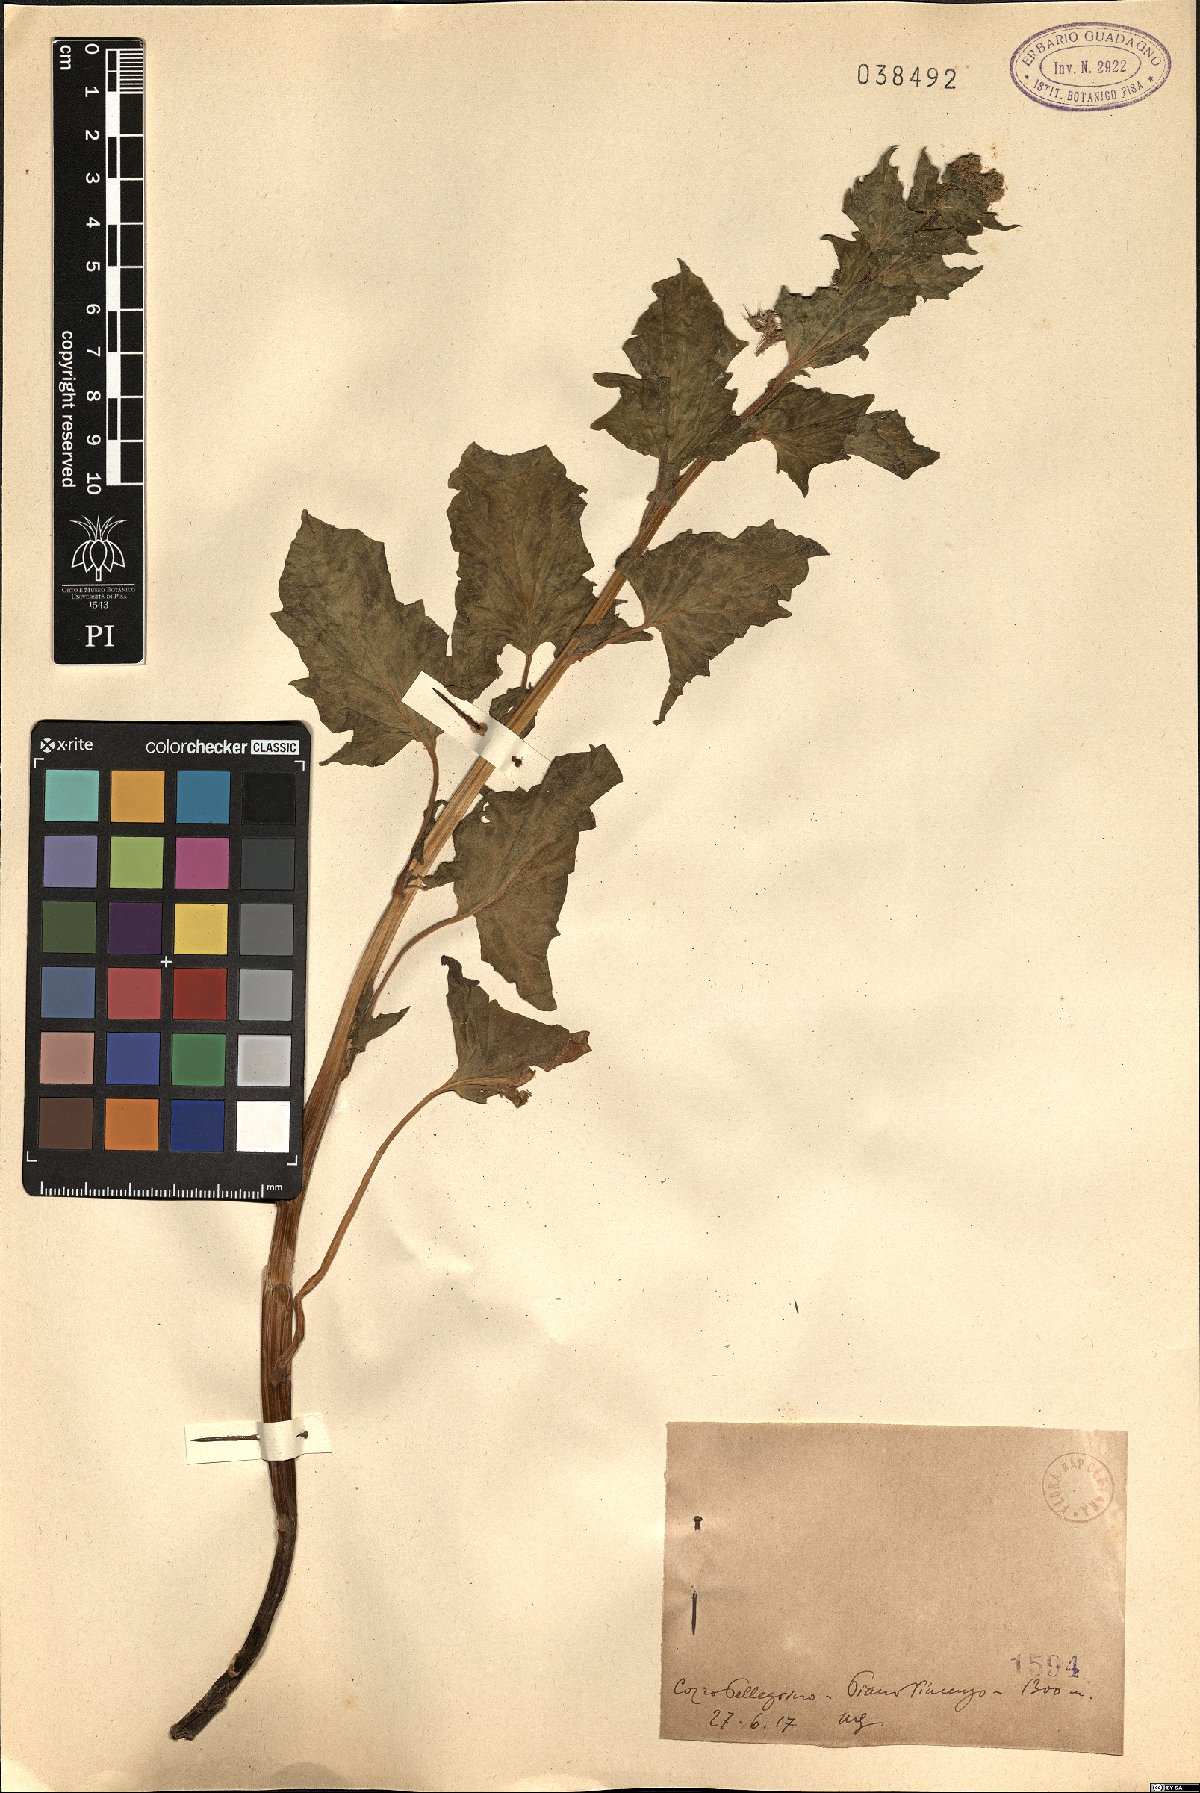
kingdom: Plantae
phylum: Tracheophyta
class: Magnoliopsida
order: Caryophyllales
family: Amaranthaceae
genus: Dysphania
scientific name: Dysphania
